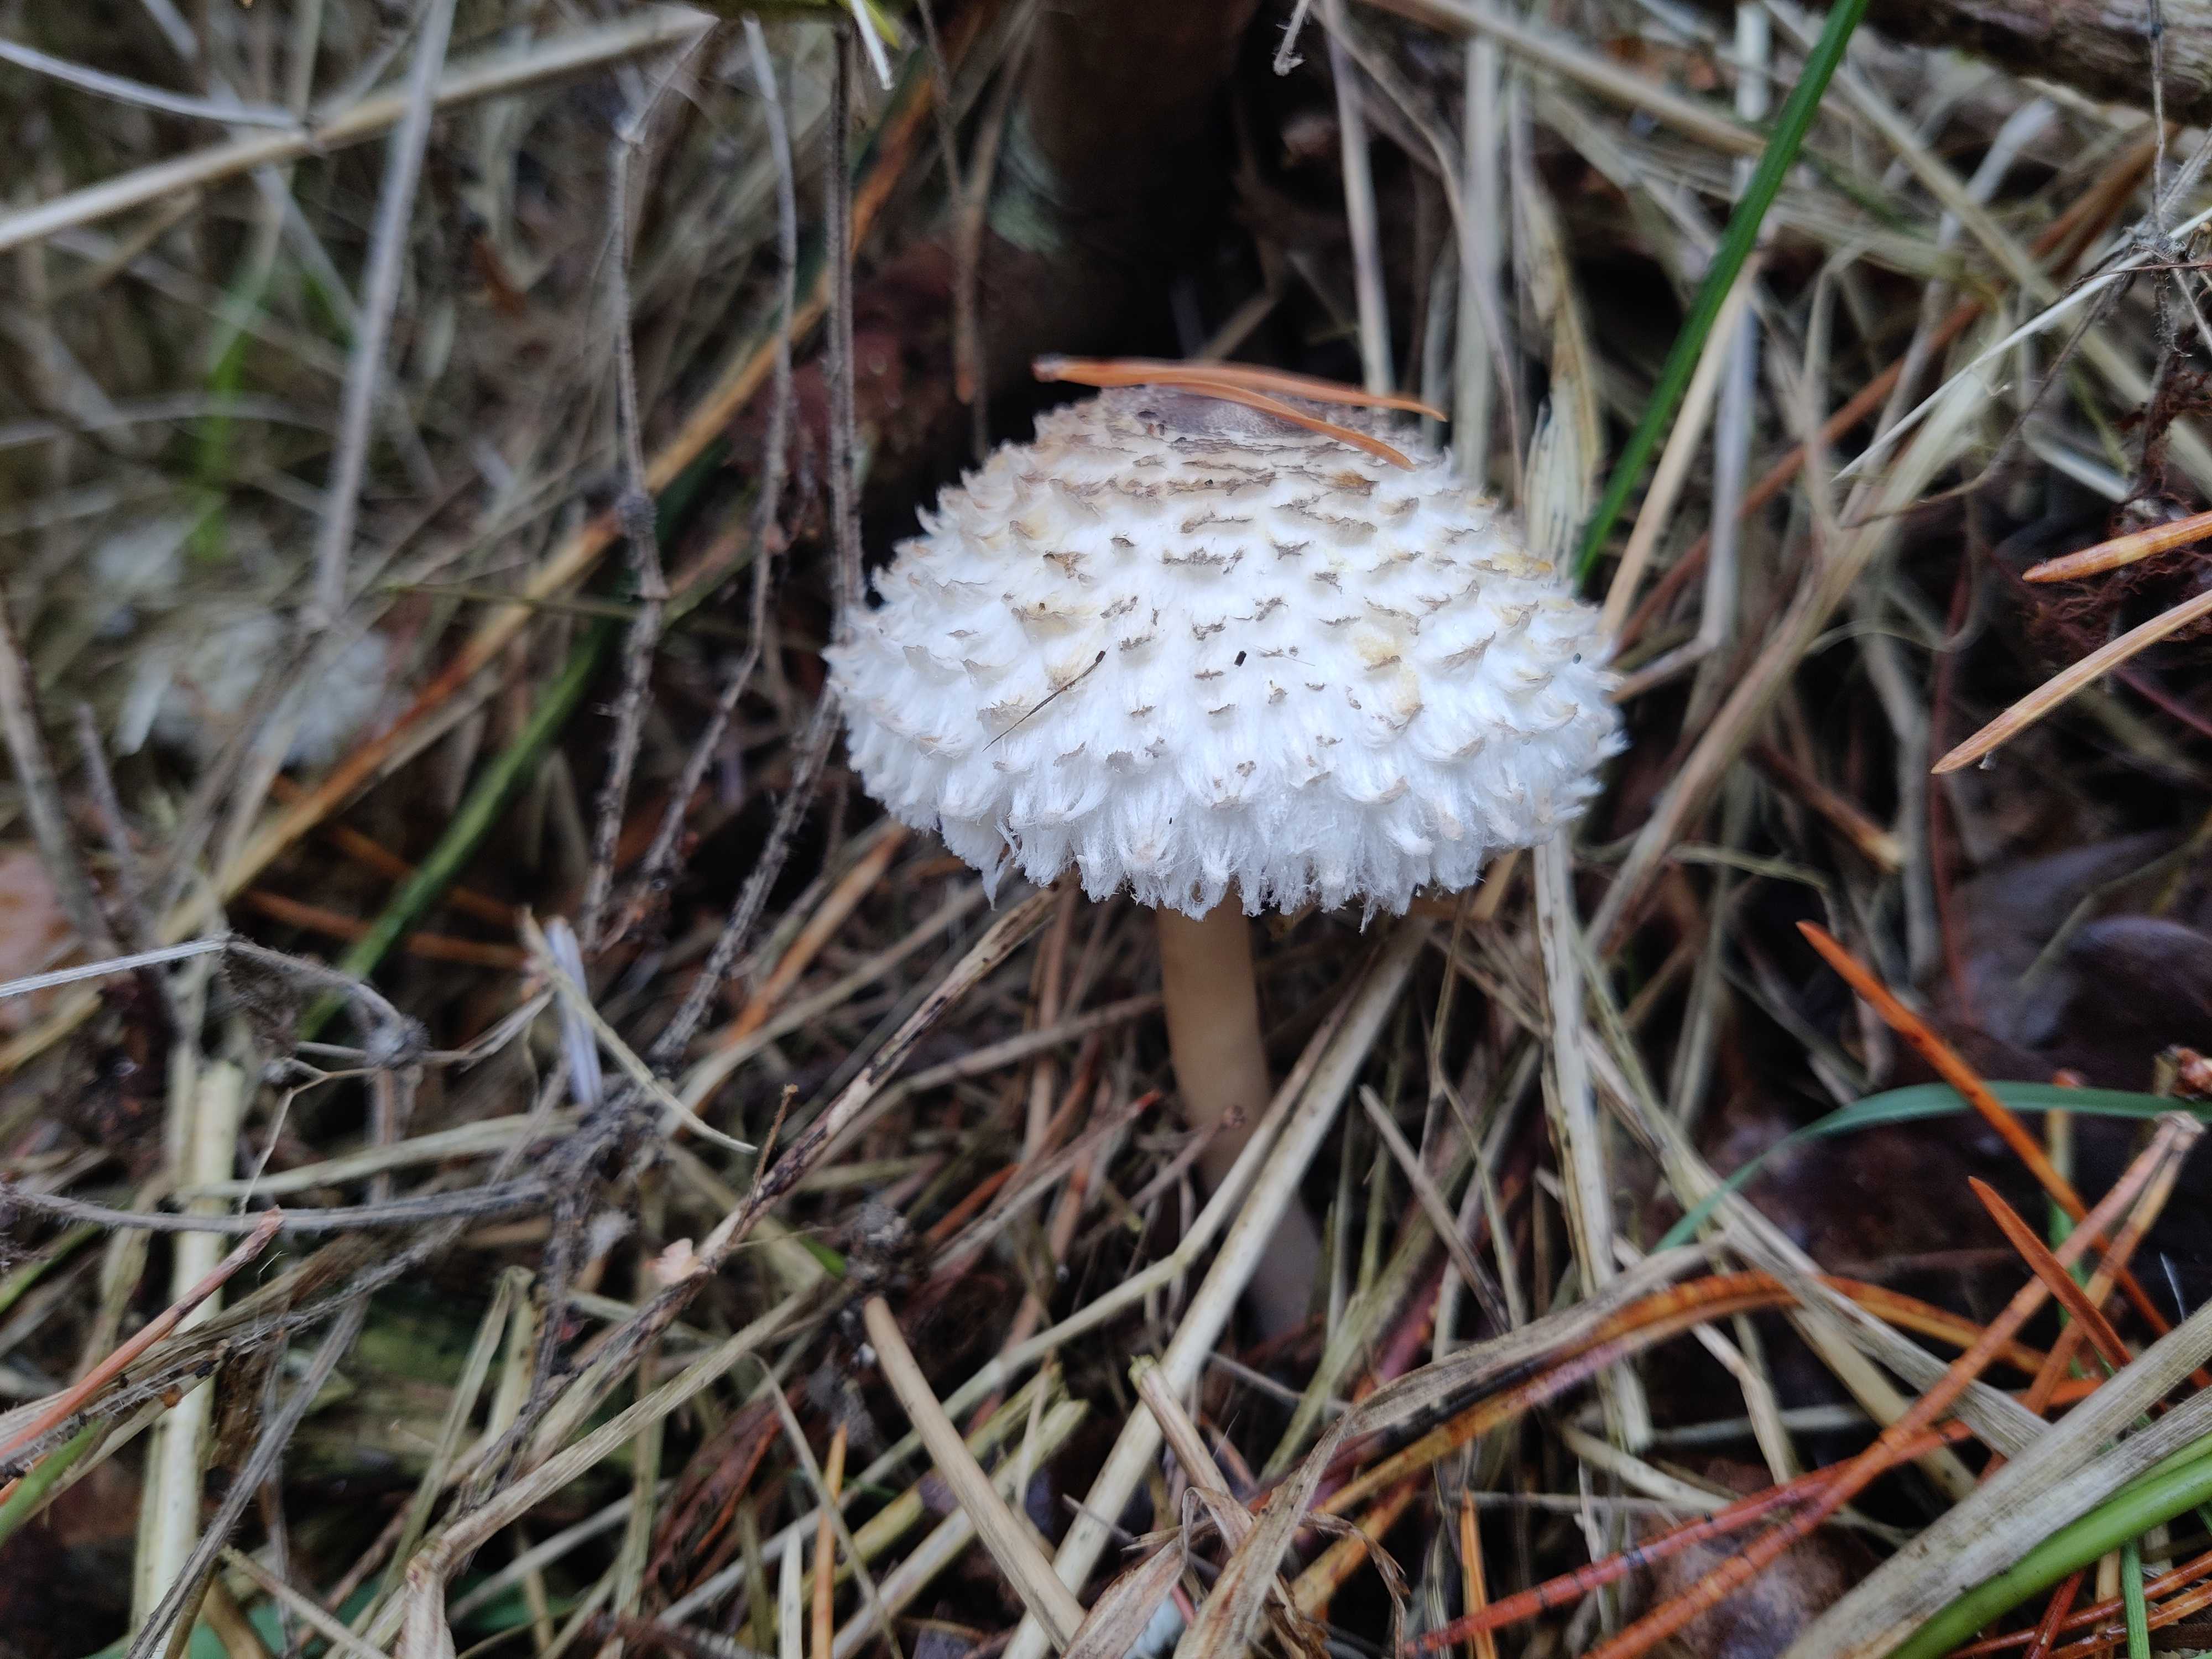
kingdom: Fungi
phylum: Basidiomycota
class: Agaricomycetes
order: Agaricales
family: Agaricaceae
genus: Leucoagaricus
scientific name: Leucoagaricus nympharum
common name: gran-silkehat
